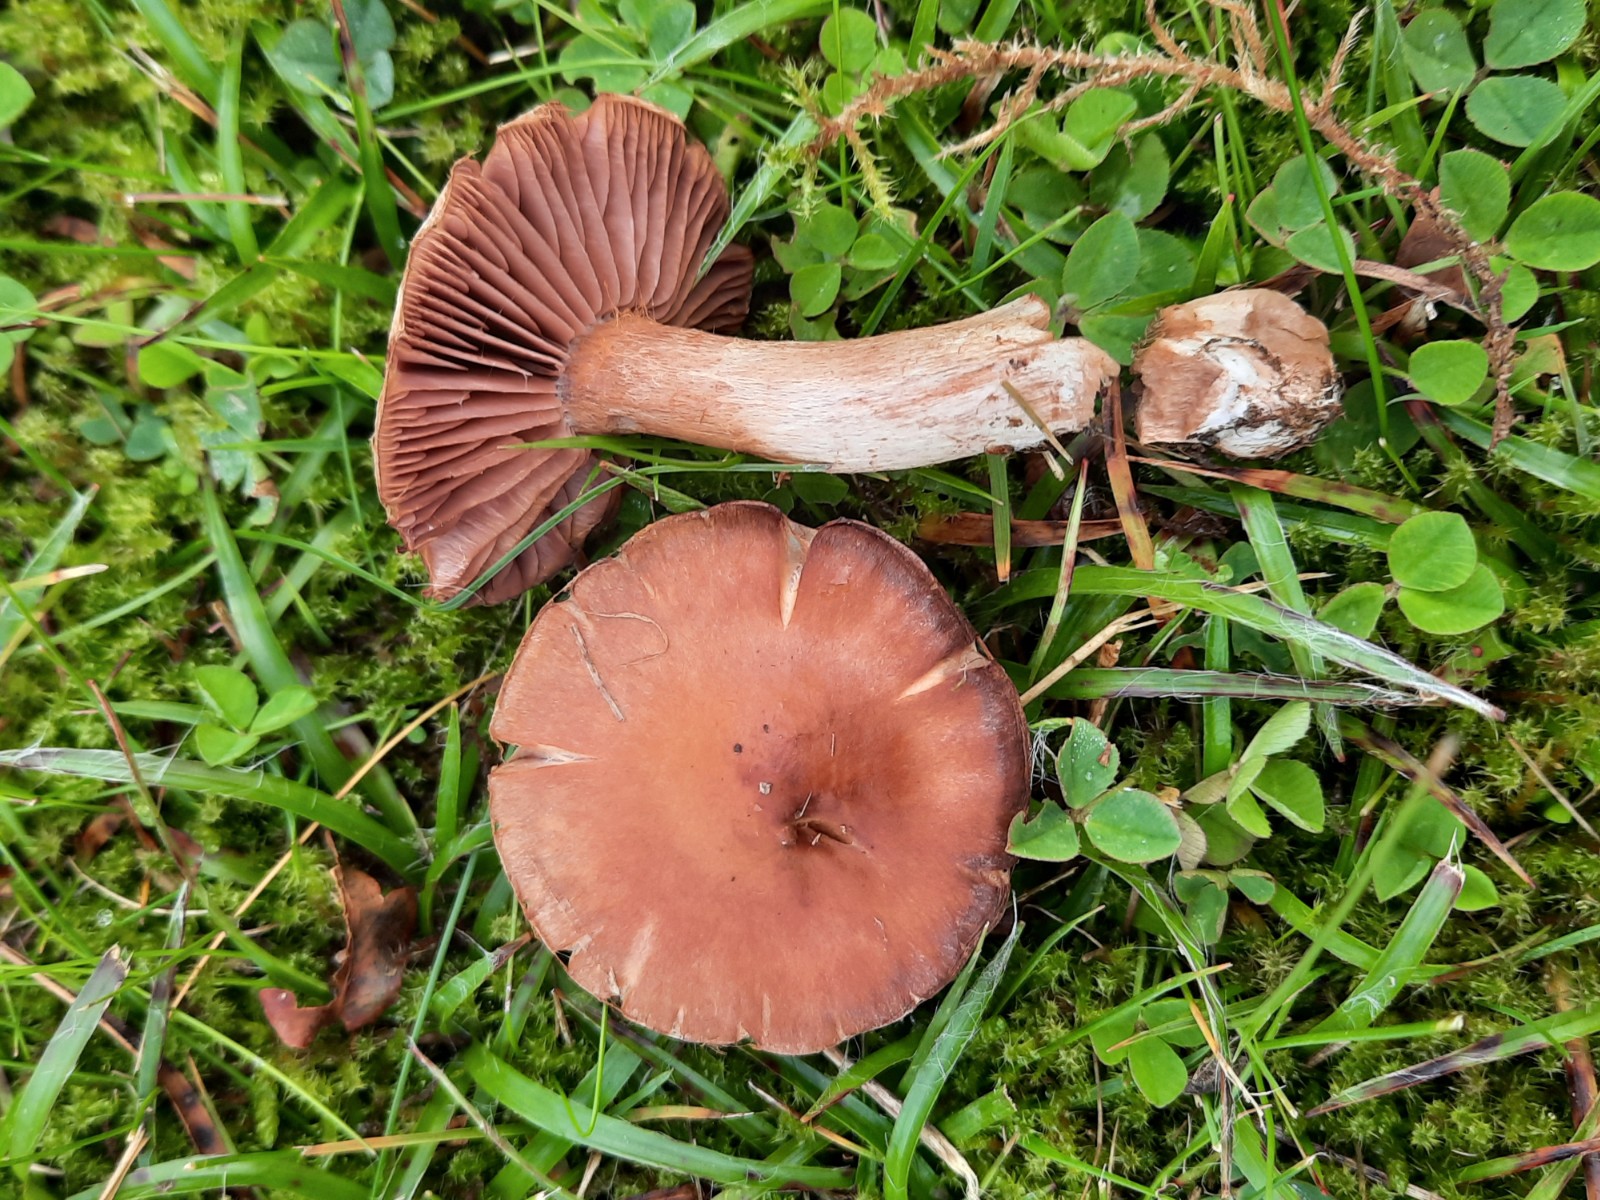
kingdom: Fungi
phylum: Basidiomycota
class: Agaricomycetes
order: Agaricales
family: Cortinariaceae
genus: Cortinarius
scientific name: Cortinarius lucorum
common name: aspe-slørhat
